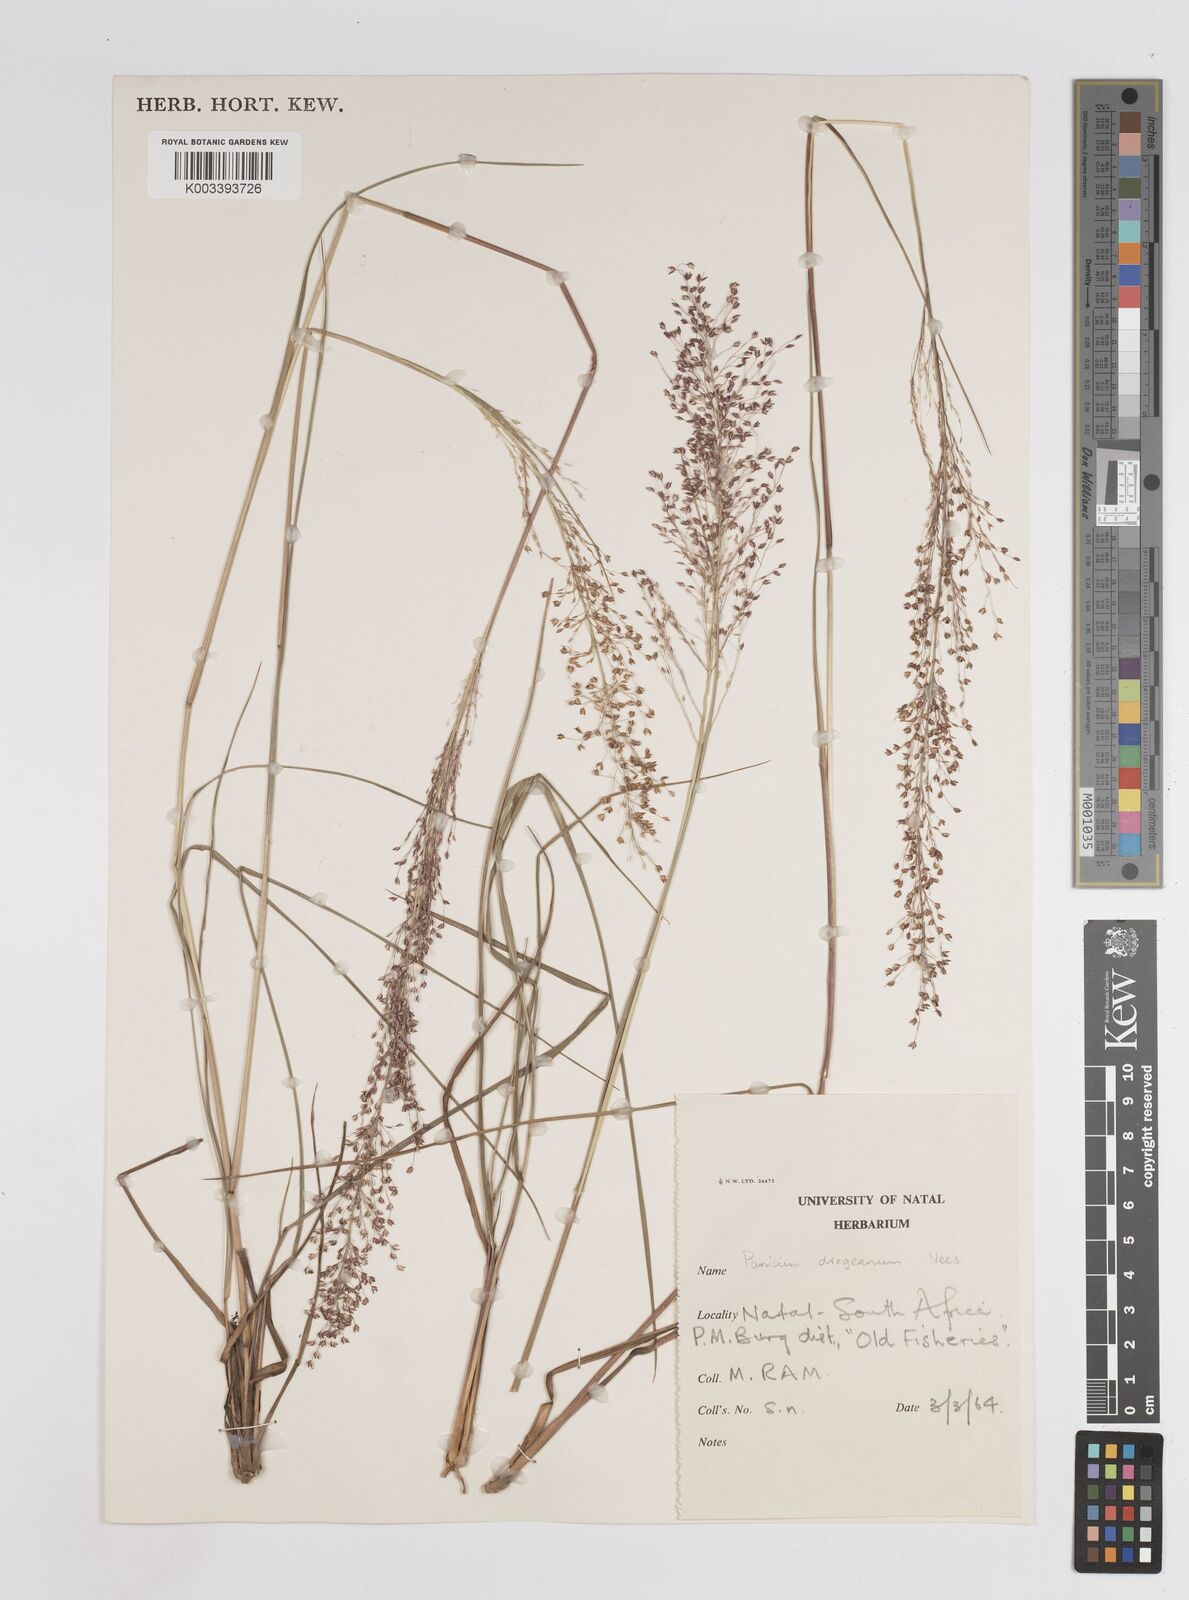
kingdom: Plantae
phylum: Tracheophyta
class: Liliopsida
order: Poales
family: Poaceae
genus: Panicum
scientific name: Panicum dregeanum
